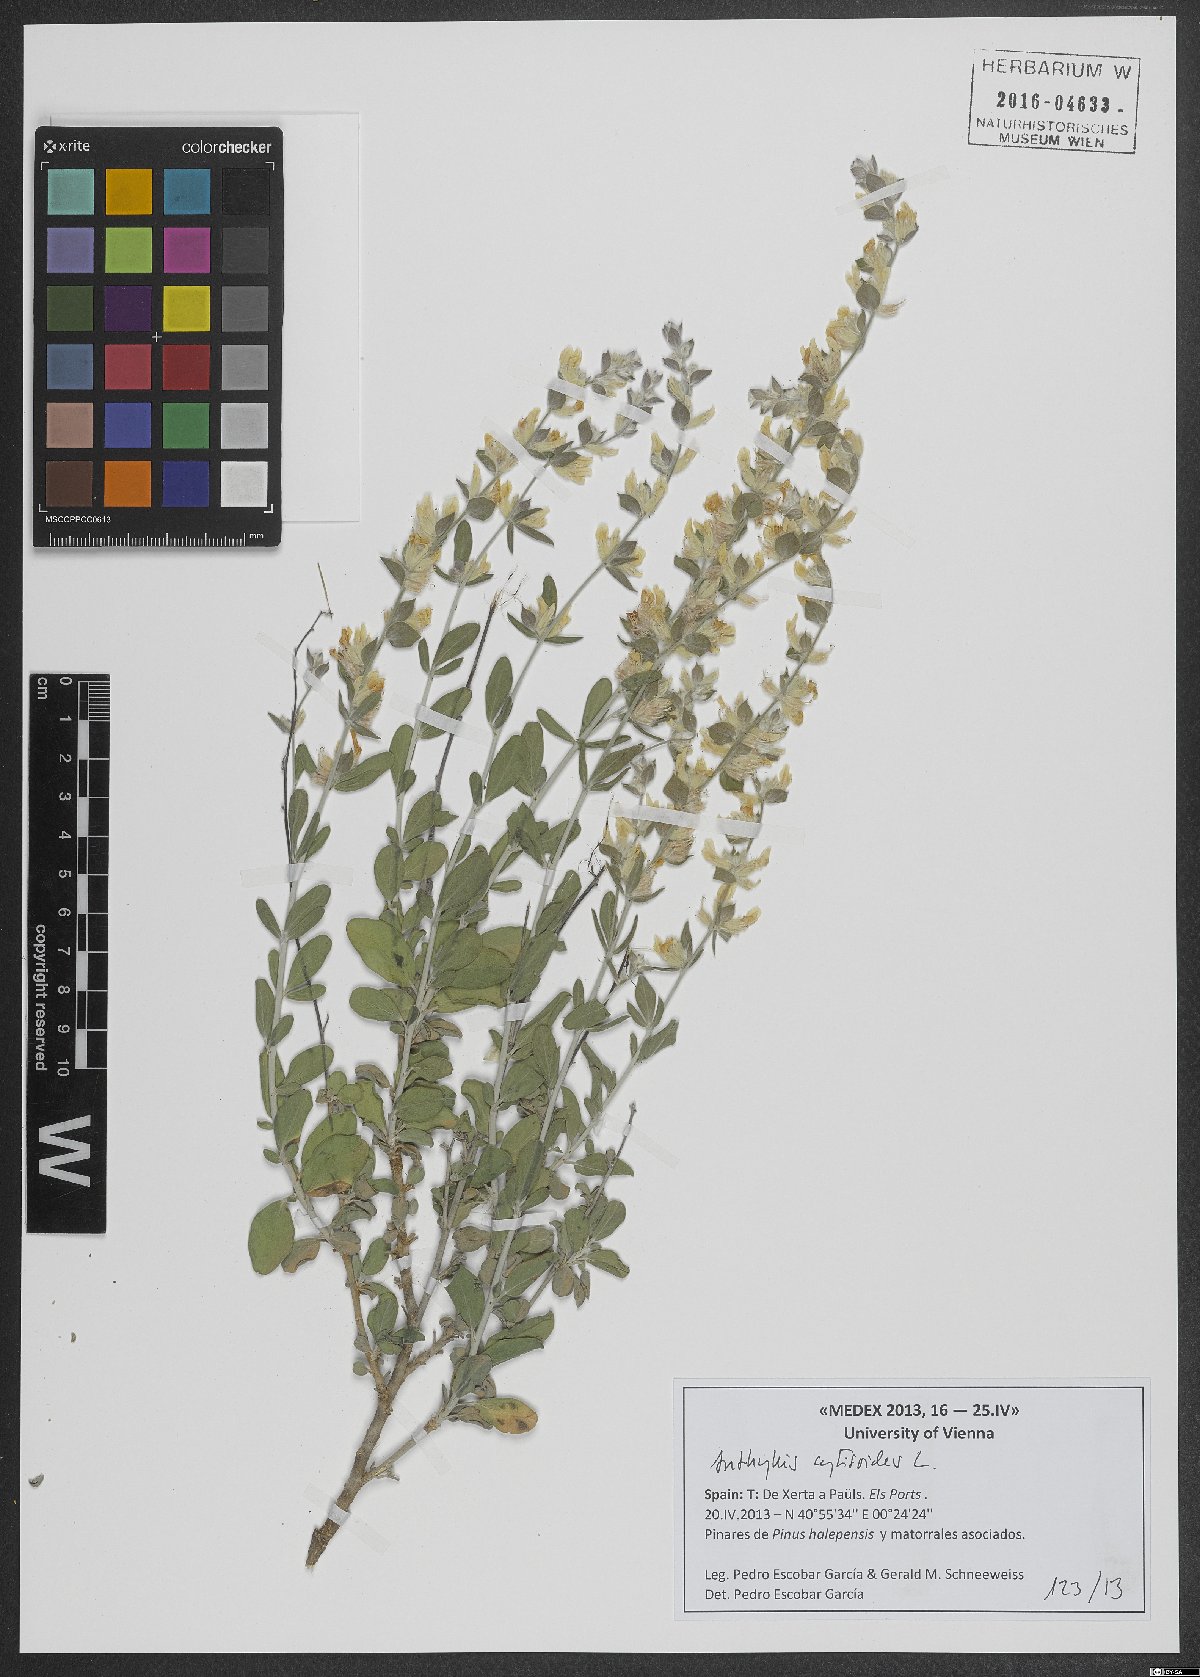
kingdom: Plantae
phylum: Tracheophyta
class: Magnoliopsida
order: Fabales
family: Fabaceae
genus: Anthyllis
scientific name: Anthyllis cytisoides
